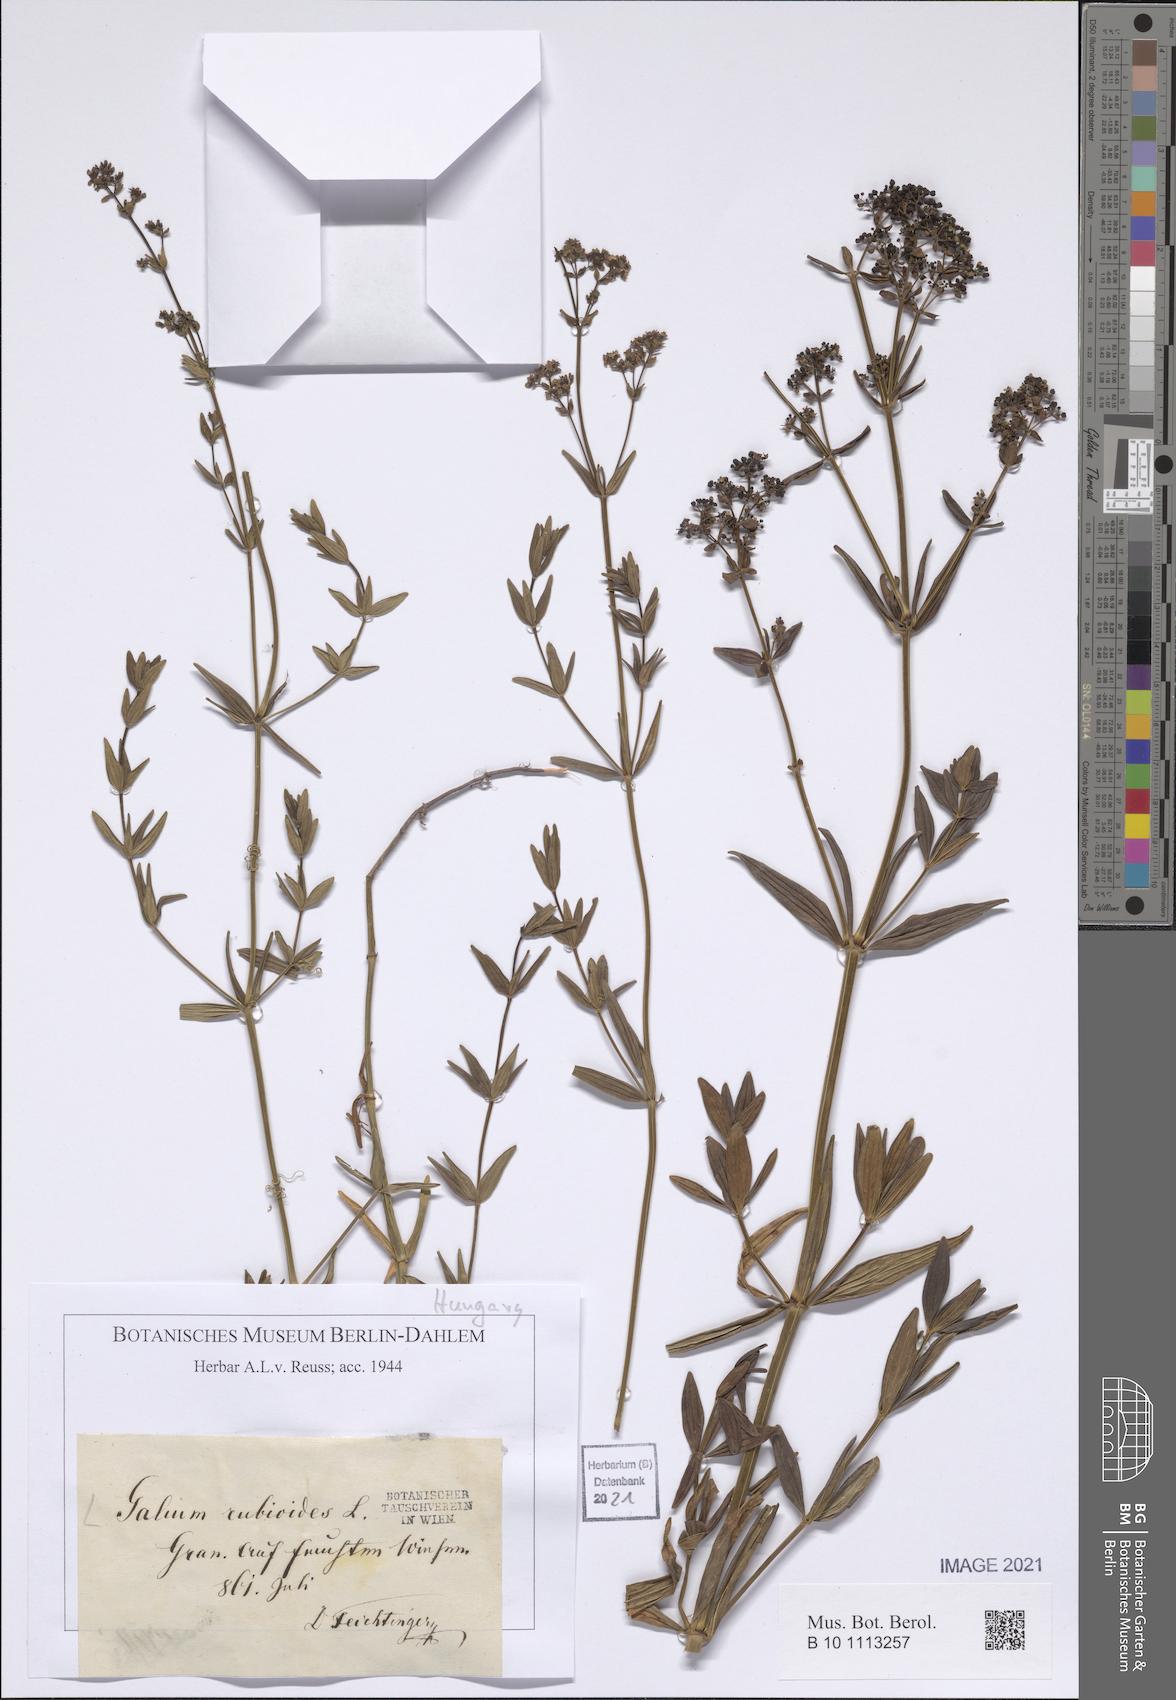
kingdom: Plantae
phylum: Tracheophyta
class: Magnoliopsida
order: Gentianales
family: Rubiaceae
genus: Galium
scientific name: Galium rubioides
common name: European bedstraw
